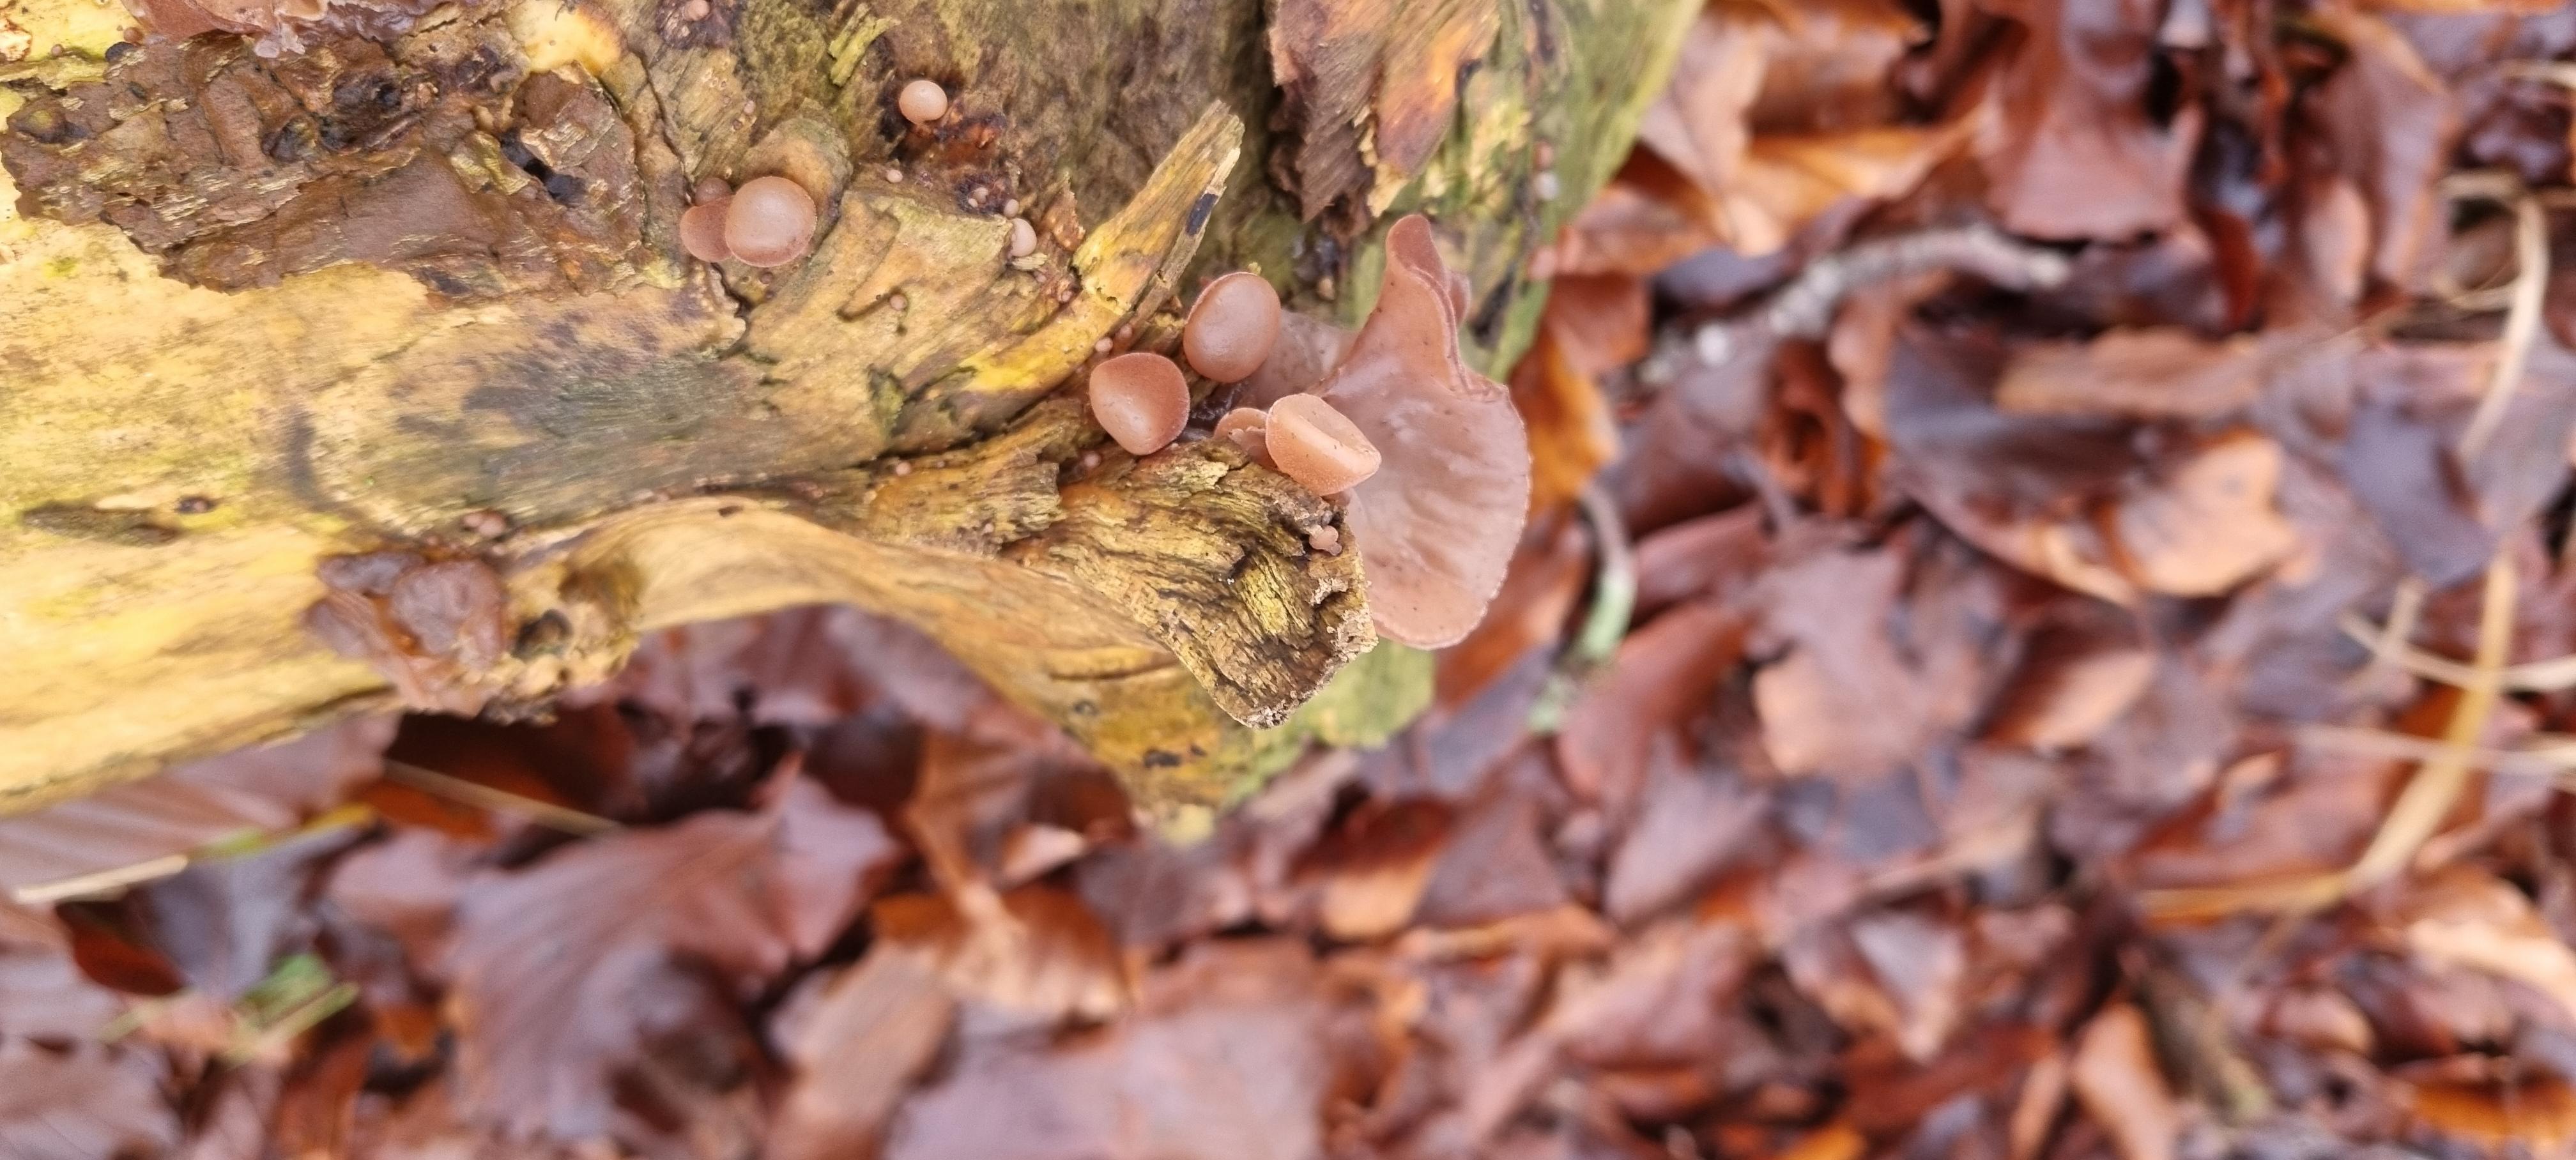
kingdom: Fungi
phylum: Basidiomycota
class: Agaricomycetes
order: Auriculariales
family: Auriculariaceae
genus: Auricularia
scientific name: Auricularia auricula-judae
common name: almindelig judasøre
